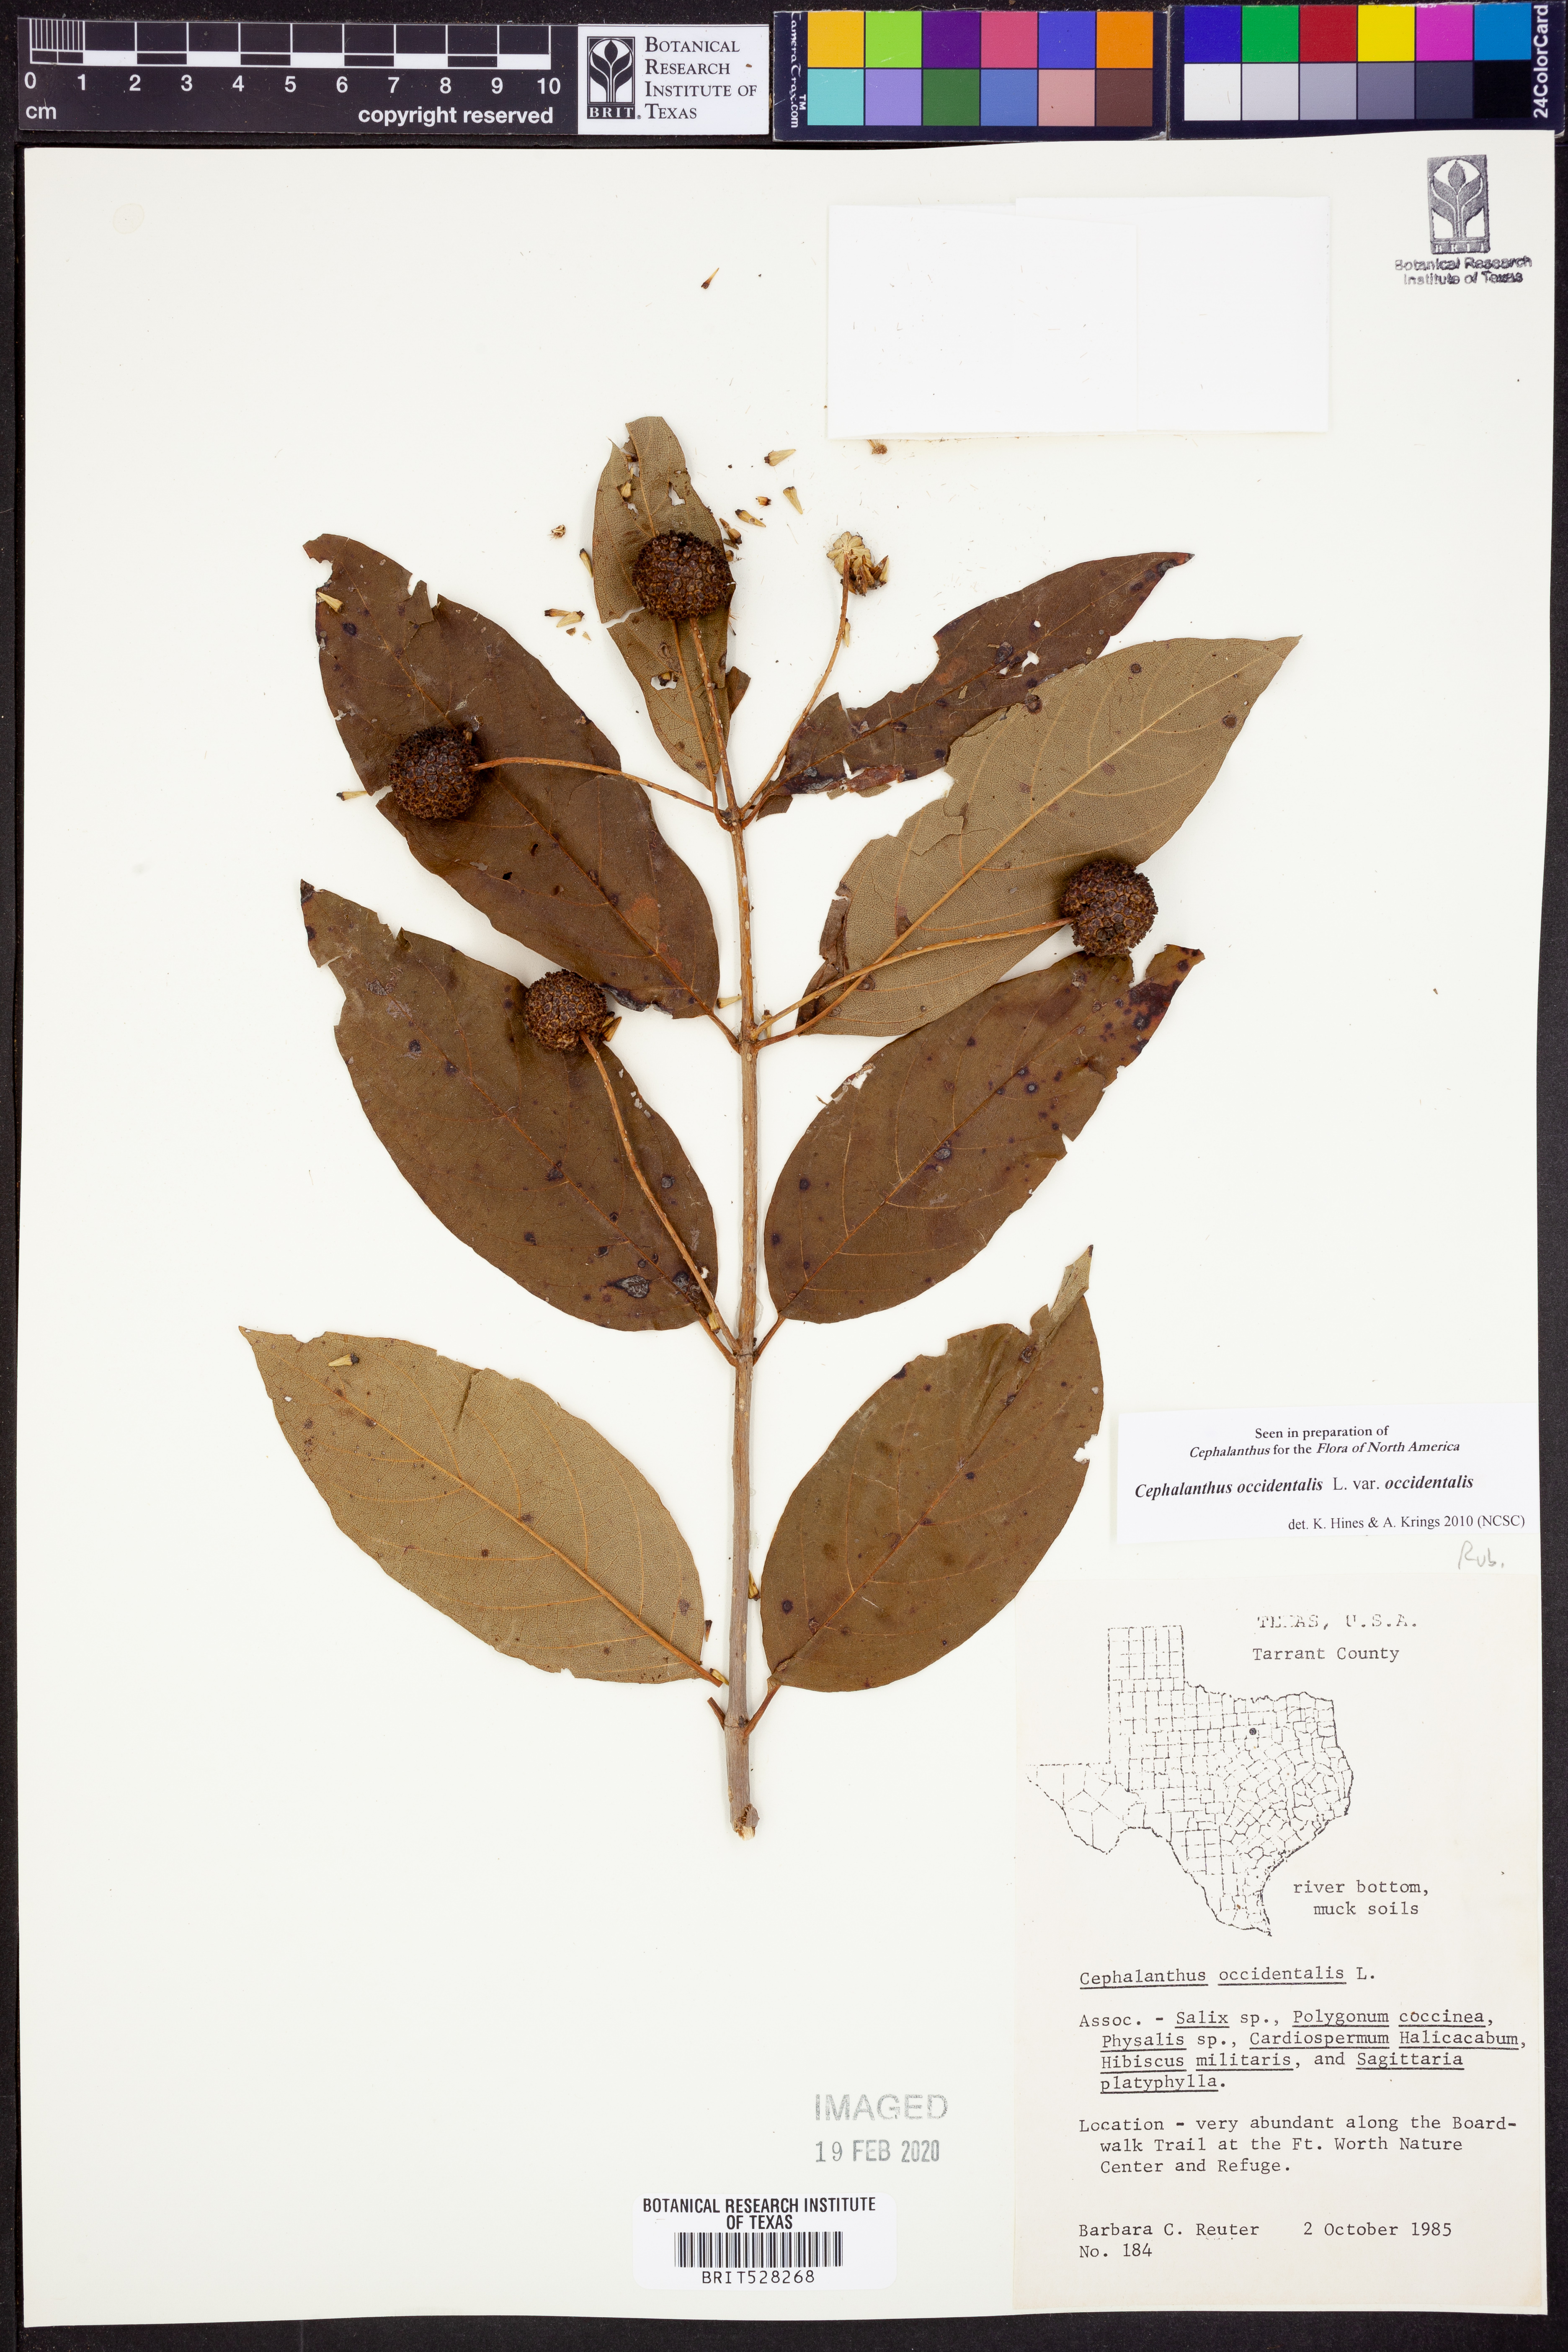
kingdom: Plantae
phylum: Tracheophyta
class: Magnoliopsida
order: Gentianales
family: Rubiaceae
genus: Cephalanthus
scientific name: Cephalanthus occidentalis
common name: Button-willow
